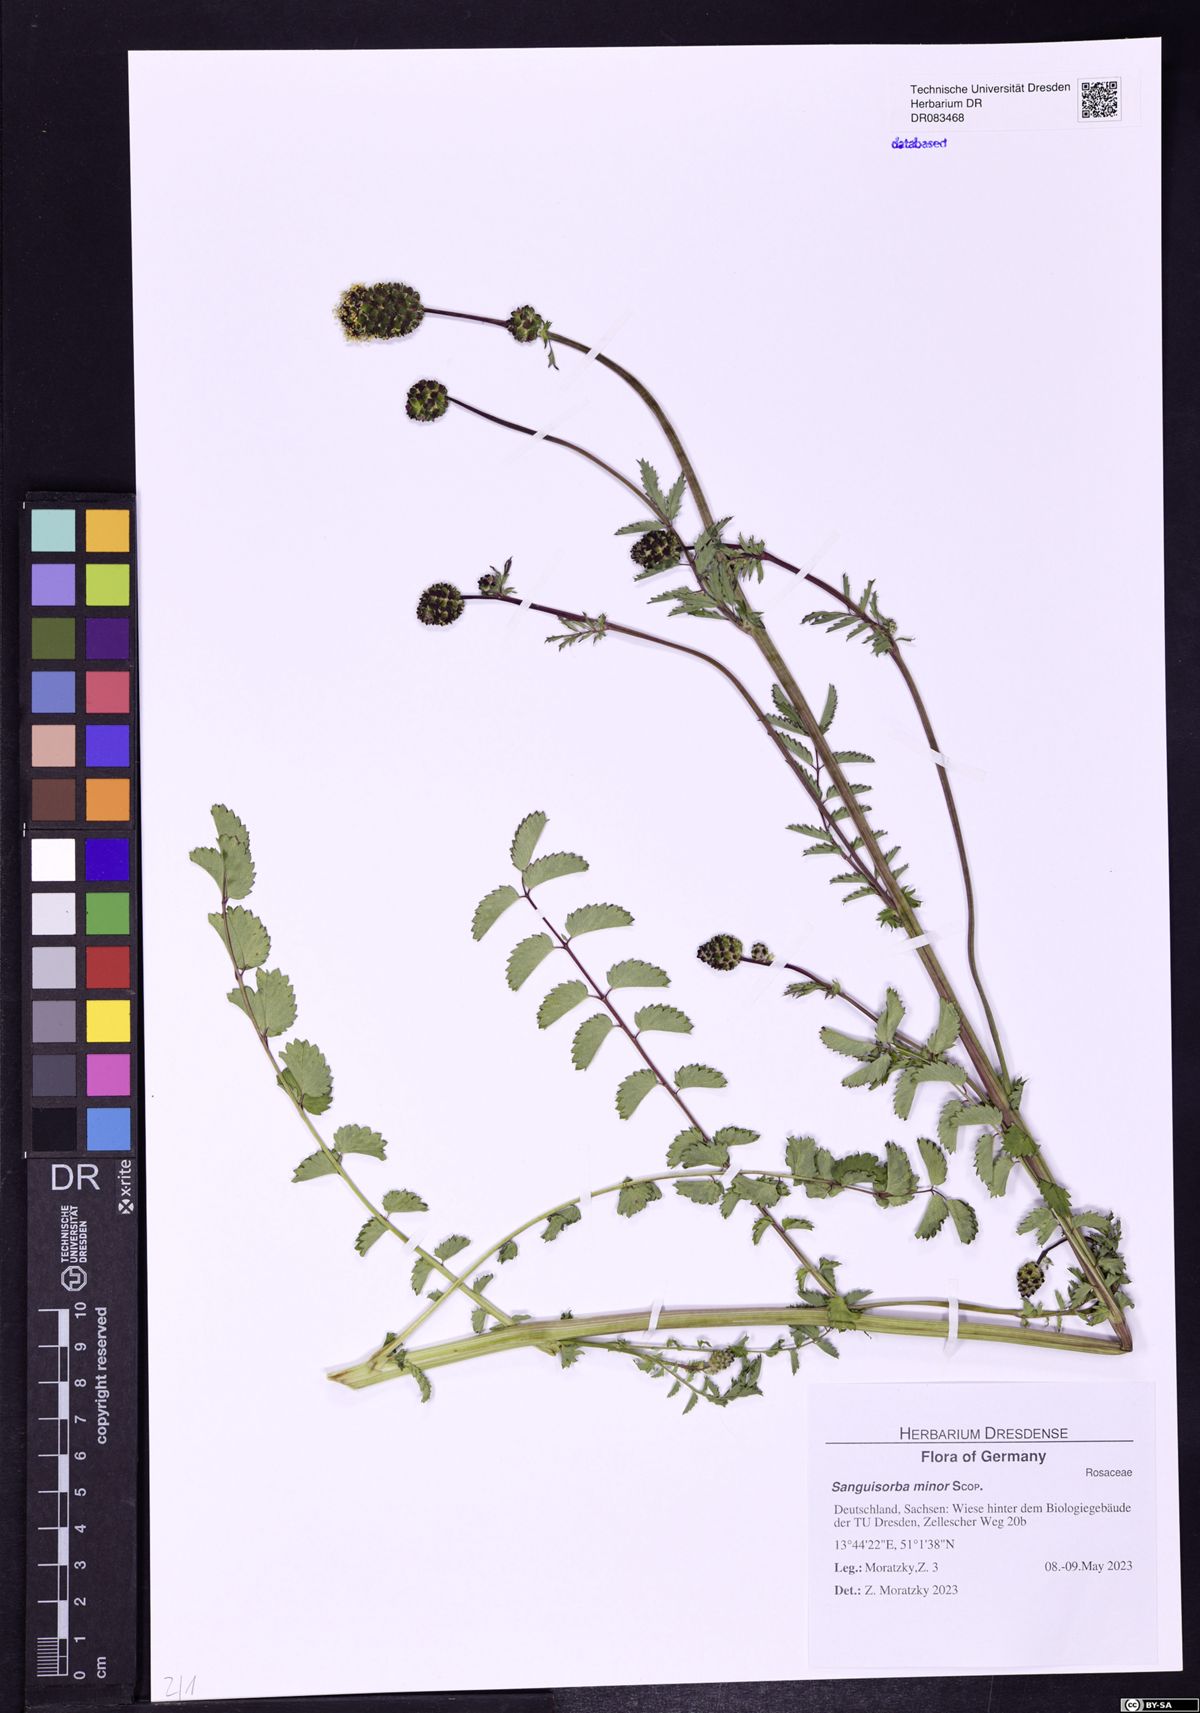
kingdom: Plantae
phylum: Tracheophyta
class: Magnoliopsida
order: Rosales
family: Rosaceae
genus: Poterium
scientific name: Poterium sanguisorba
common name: Salad burnet
